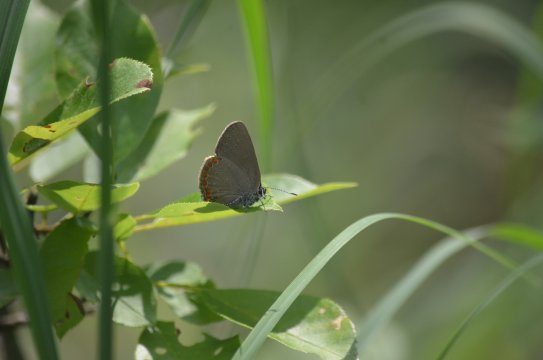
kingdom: Animalia
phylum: Arthropoda
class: Insecta
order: Lepidoptera
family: Lycaenidae
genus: Harkenclenus
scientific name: Harkenclenus titus
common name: Coral Hairstreak
